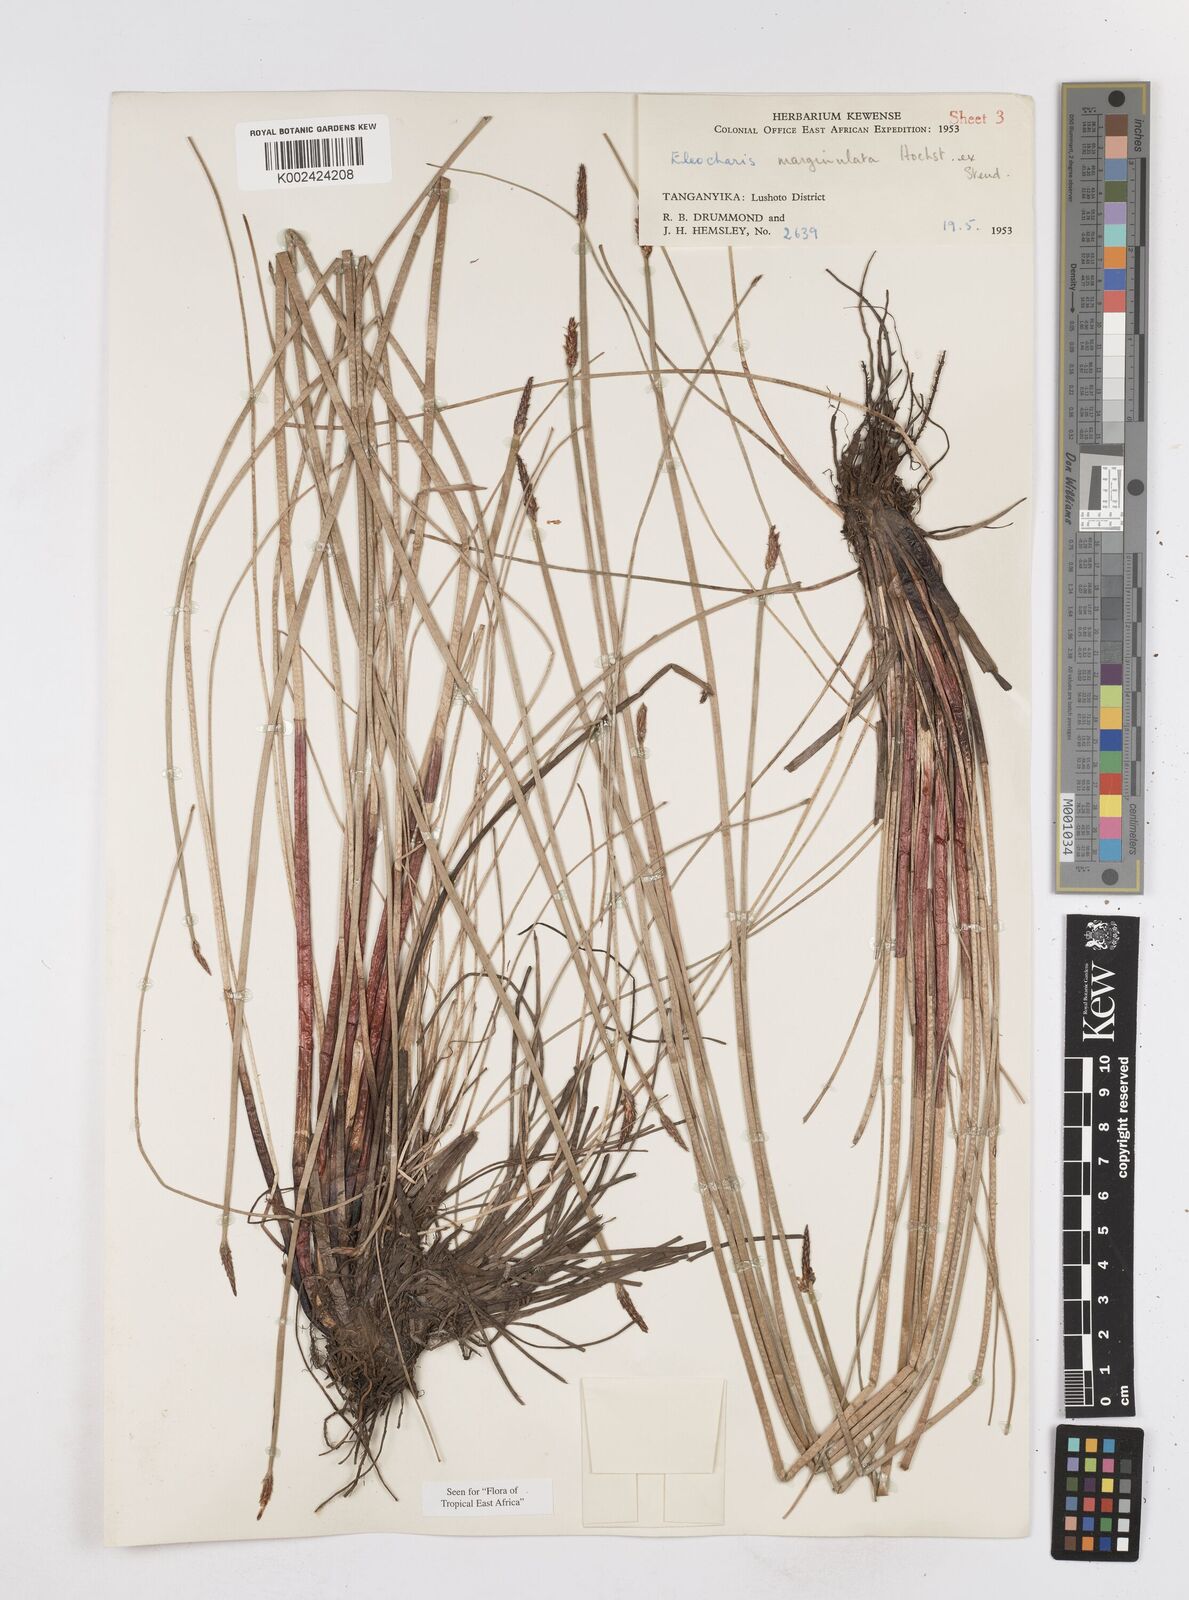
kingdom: Plantae
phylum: Tracheophyta
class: Liliopsida
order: Poales
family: Cyperaceae
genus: Eleocharis
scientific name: Eleocharis marginulata
